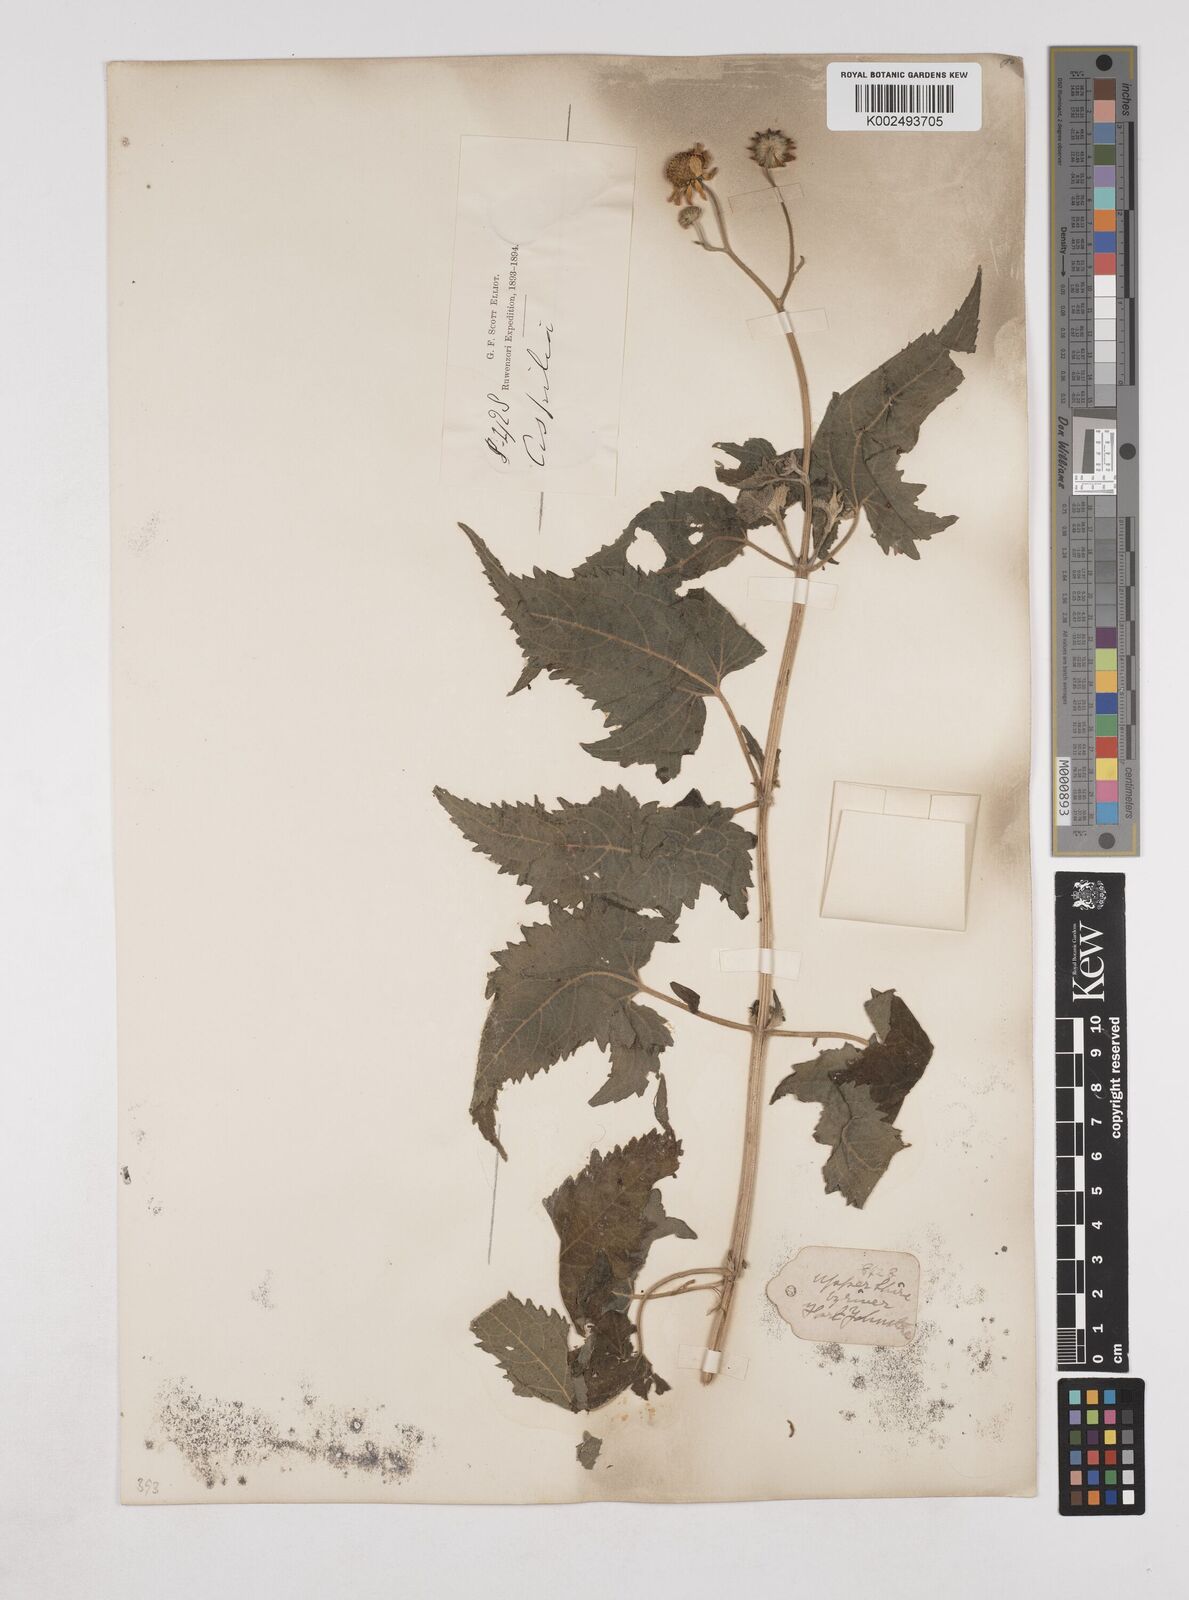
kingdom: Plantae
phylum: Tracheophyta
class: Magnoliopsida
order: Asterales
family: Asteraceae
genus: Lipotriche
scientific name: Lipotriche scandens
